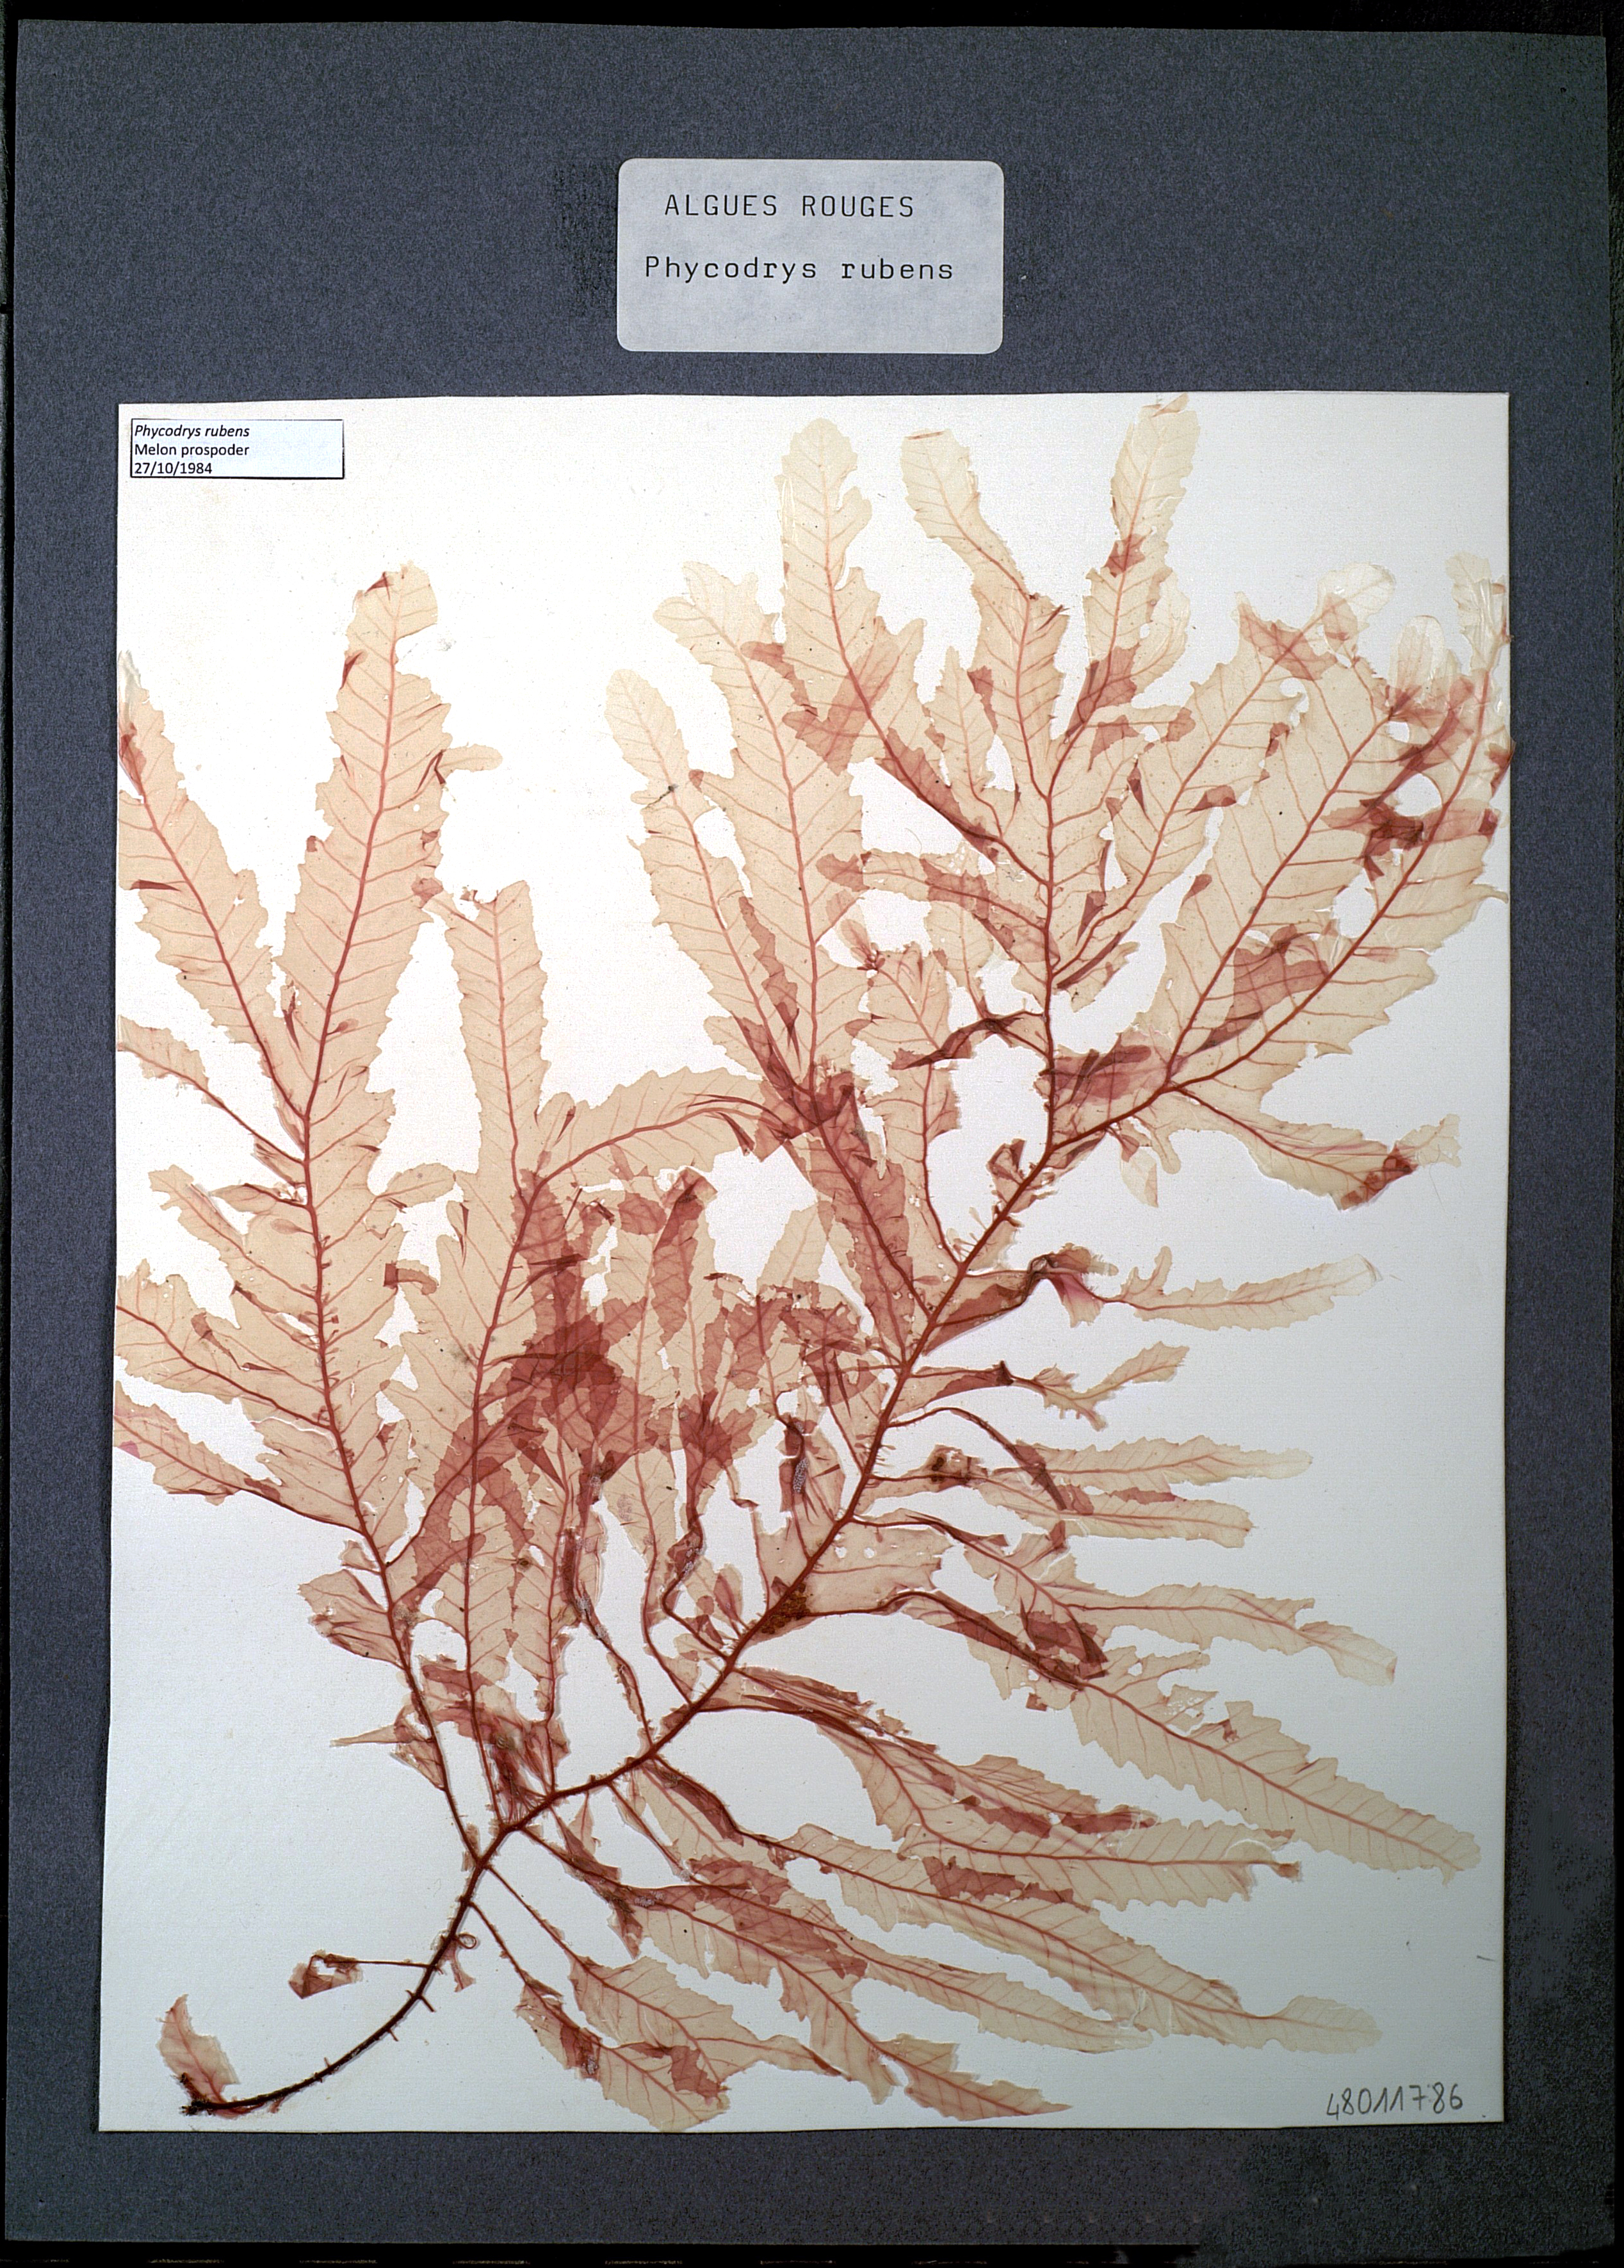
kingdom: Plantae
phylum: Rhodophyta
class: Florideophyceae
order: Ceramiales
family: Delesseriaceae
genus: Phycodrys
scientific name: Phycodrys rubens
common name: Sea oak
